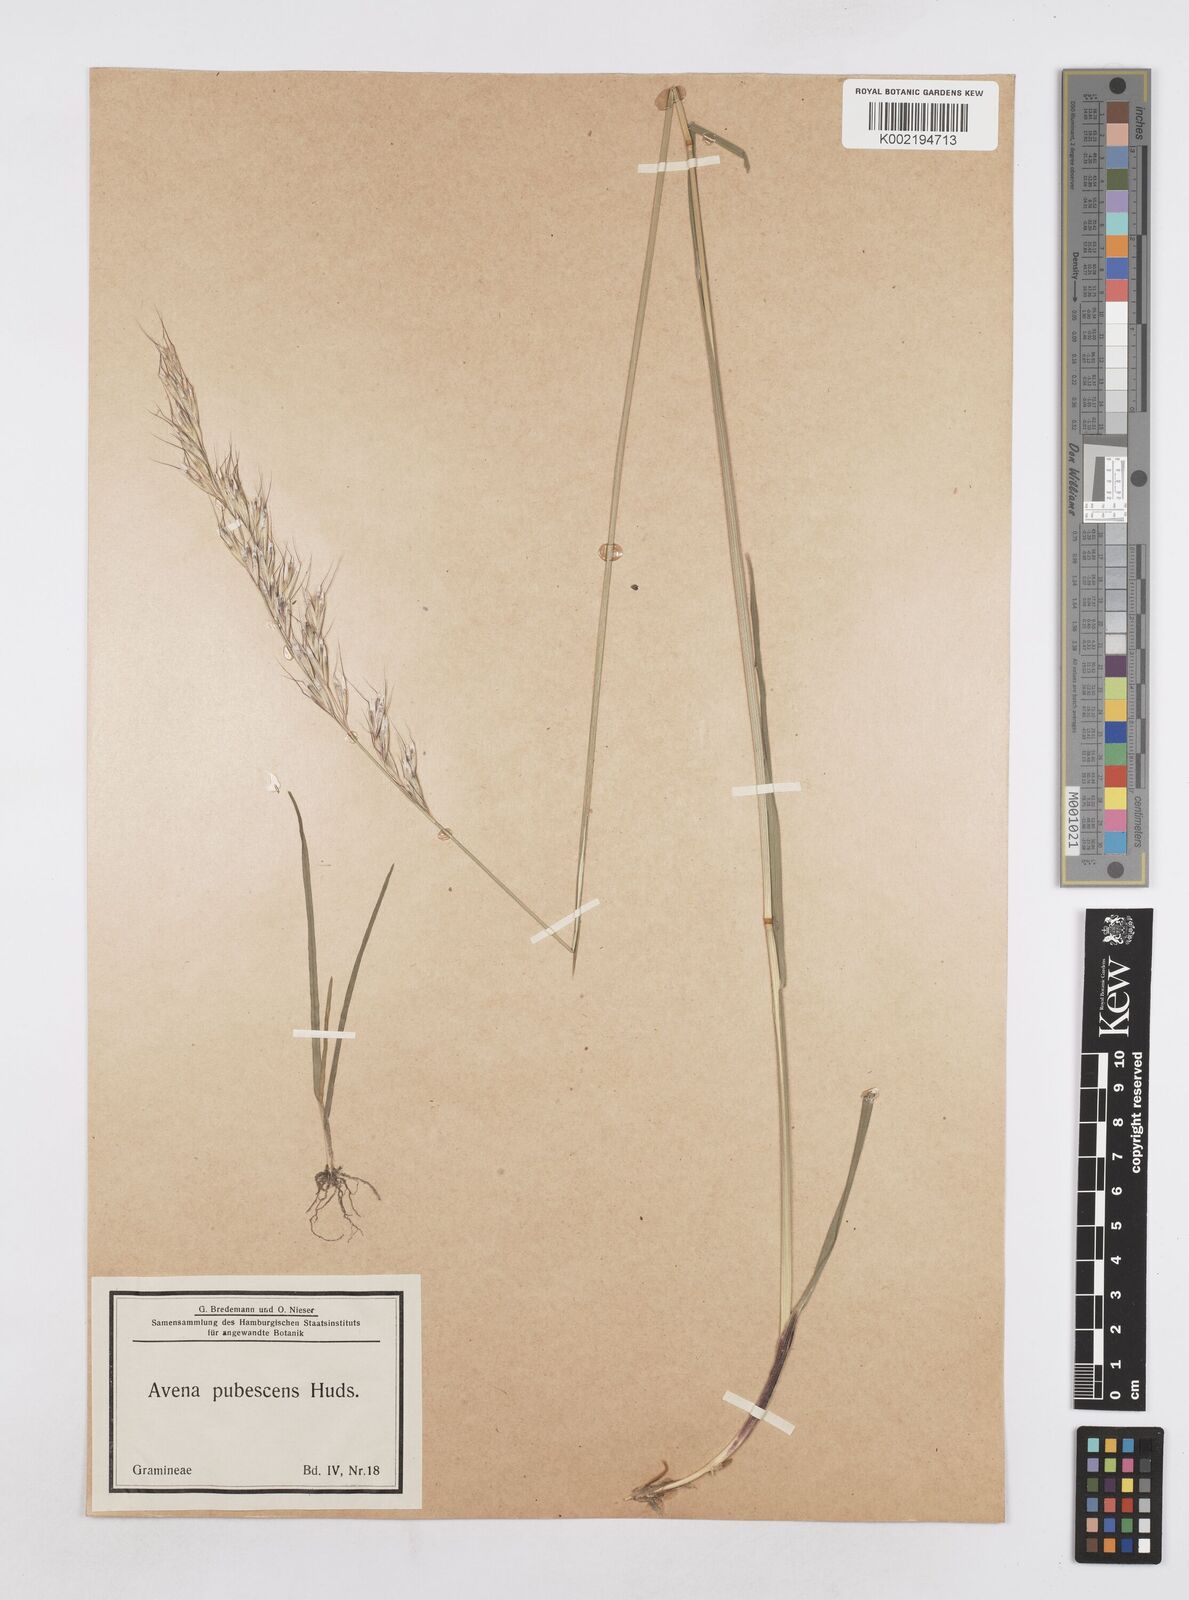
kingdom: Plantae
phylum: Tracheophyta
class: Liliopsida
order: Poales
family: Poaceae
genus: Avenula
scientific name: Avenula pubescens
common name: Downy alpine oatgrass
